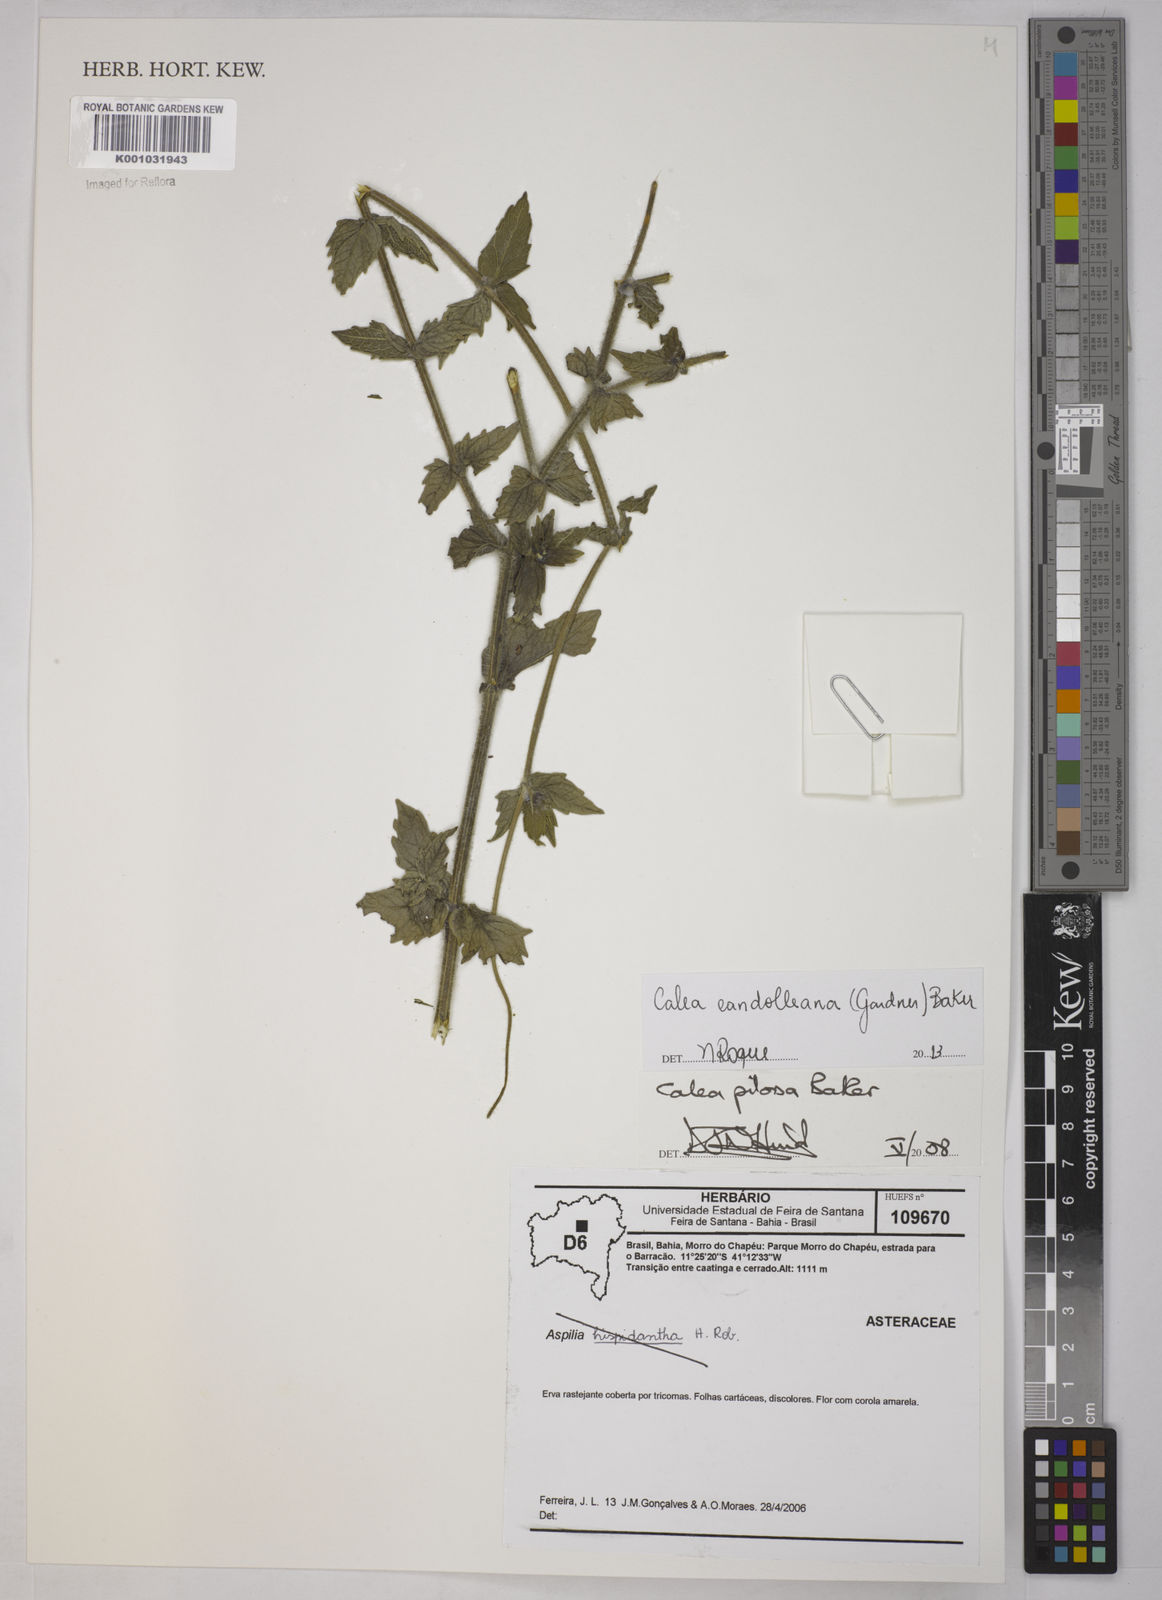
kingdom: Plantae
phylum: Tracheophyta
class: Magnoliopsida
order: Asterales
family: Asteraceae
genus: Calea
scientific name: Calea candolleana
